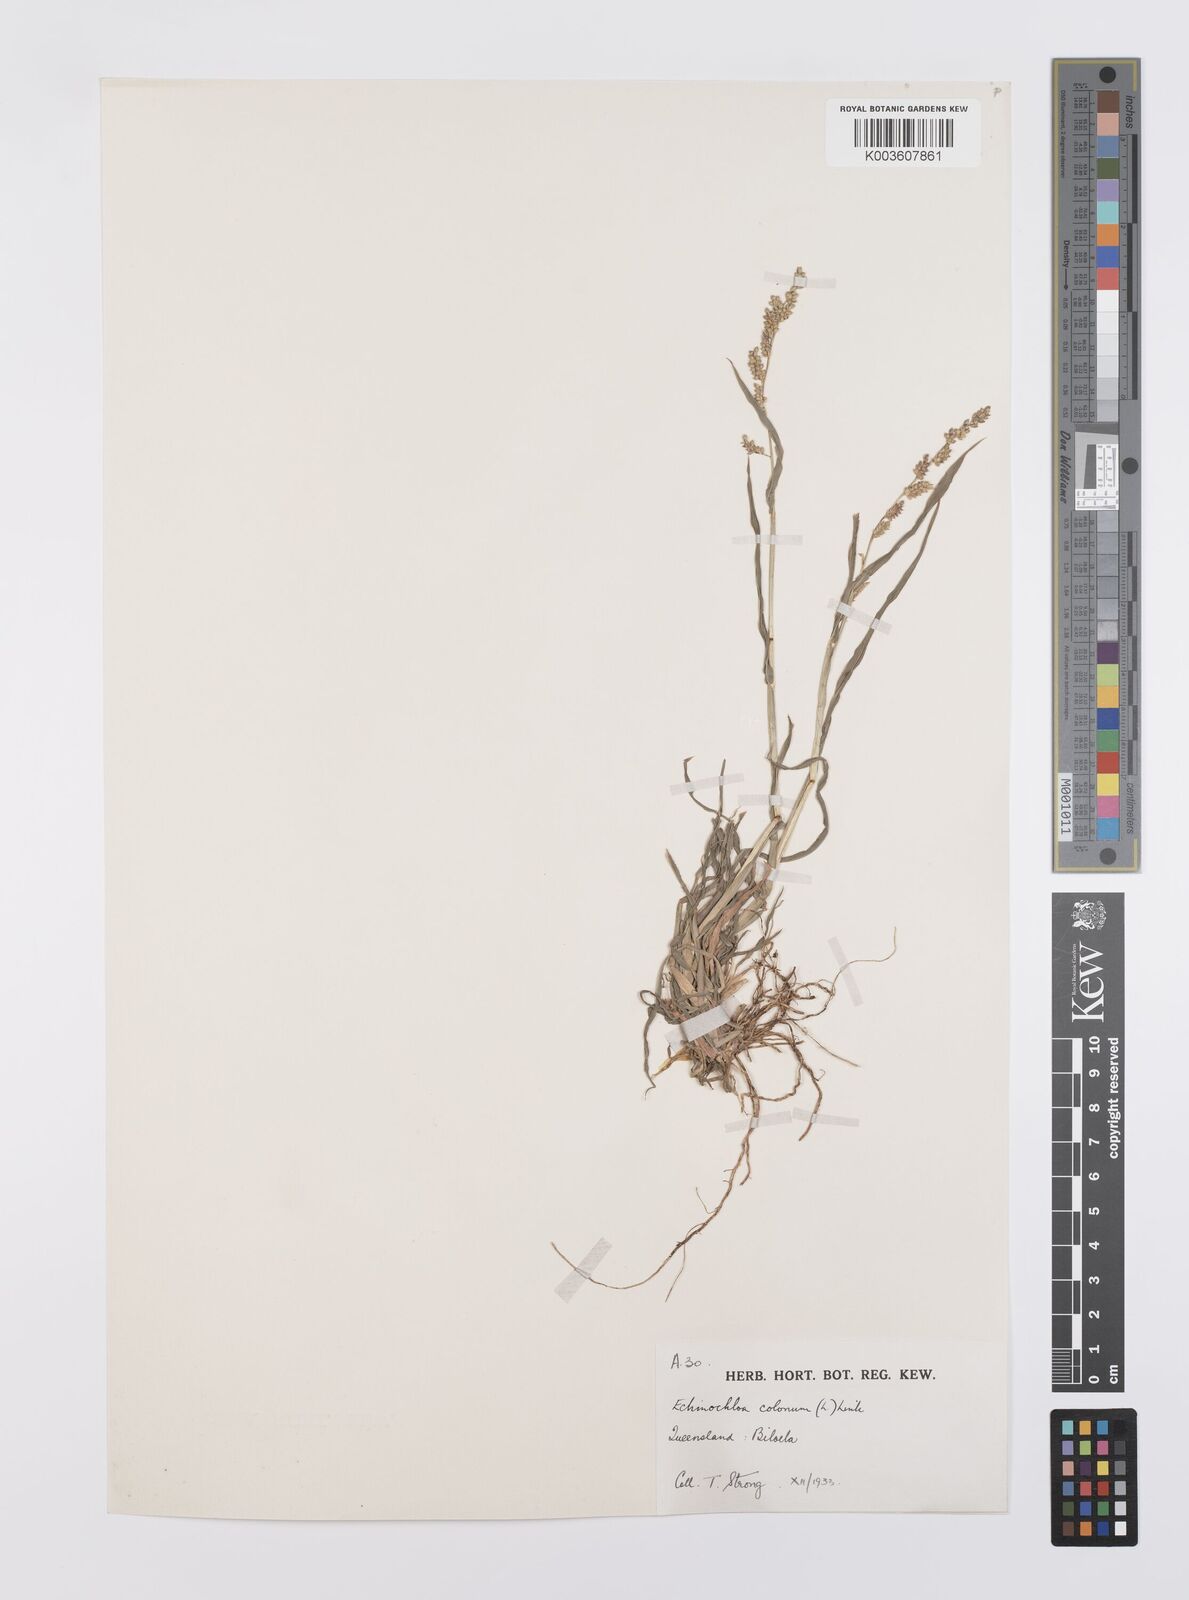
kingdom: Plantae
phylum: Tracheophyta
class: Liliopsida
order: Poales
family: Poaceae
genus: Echinochloa
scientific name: Echinochloa colonum
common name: Jungle rice
